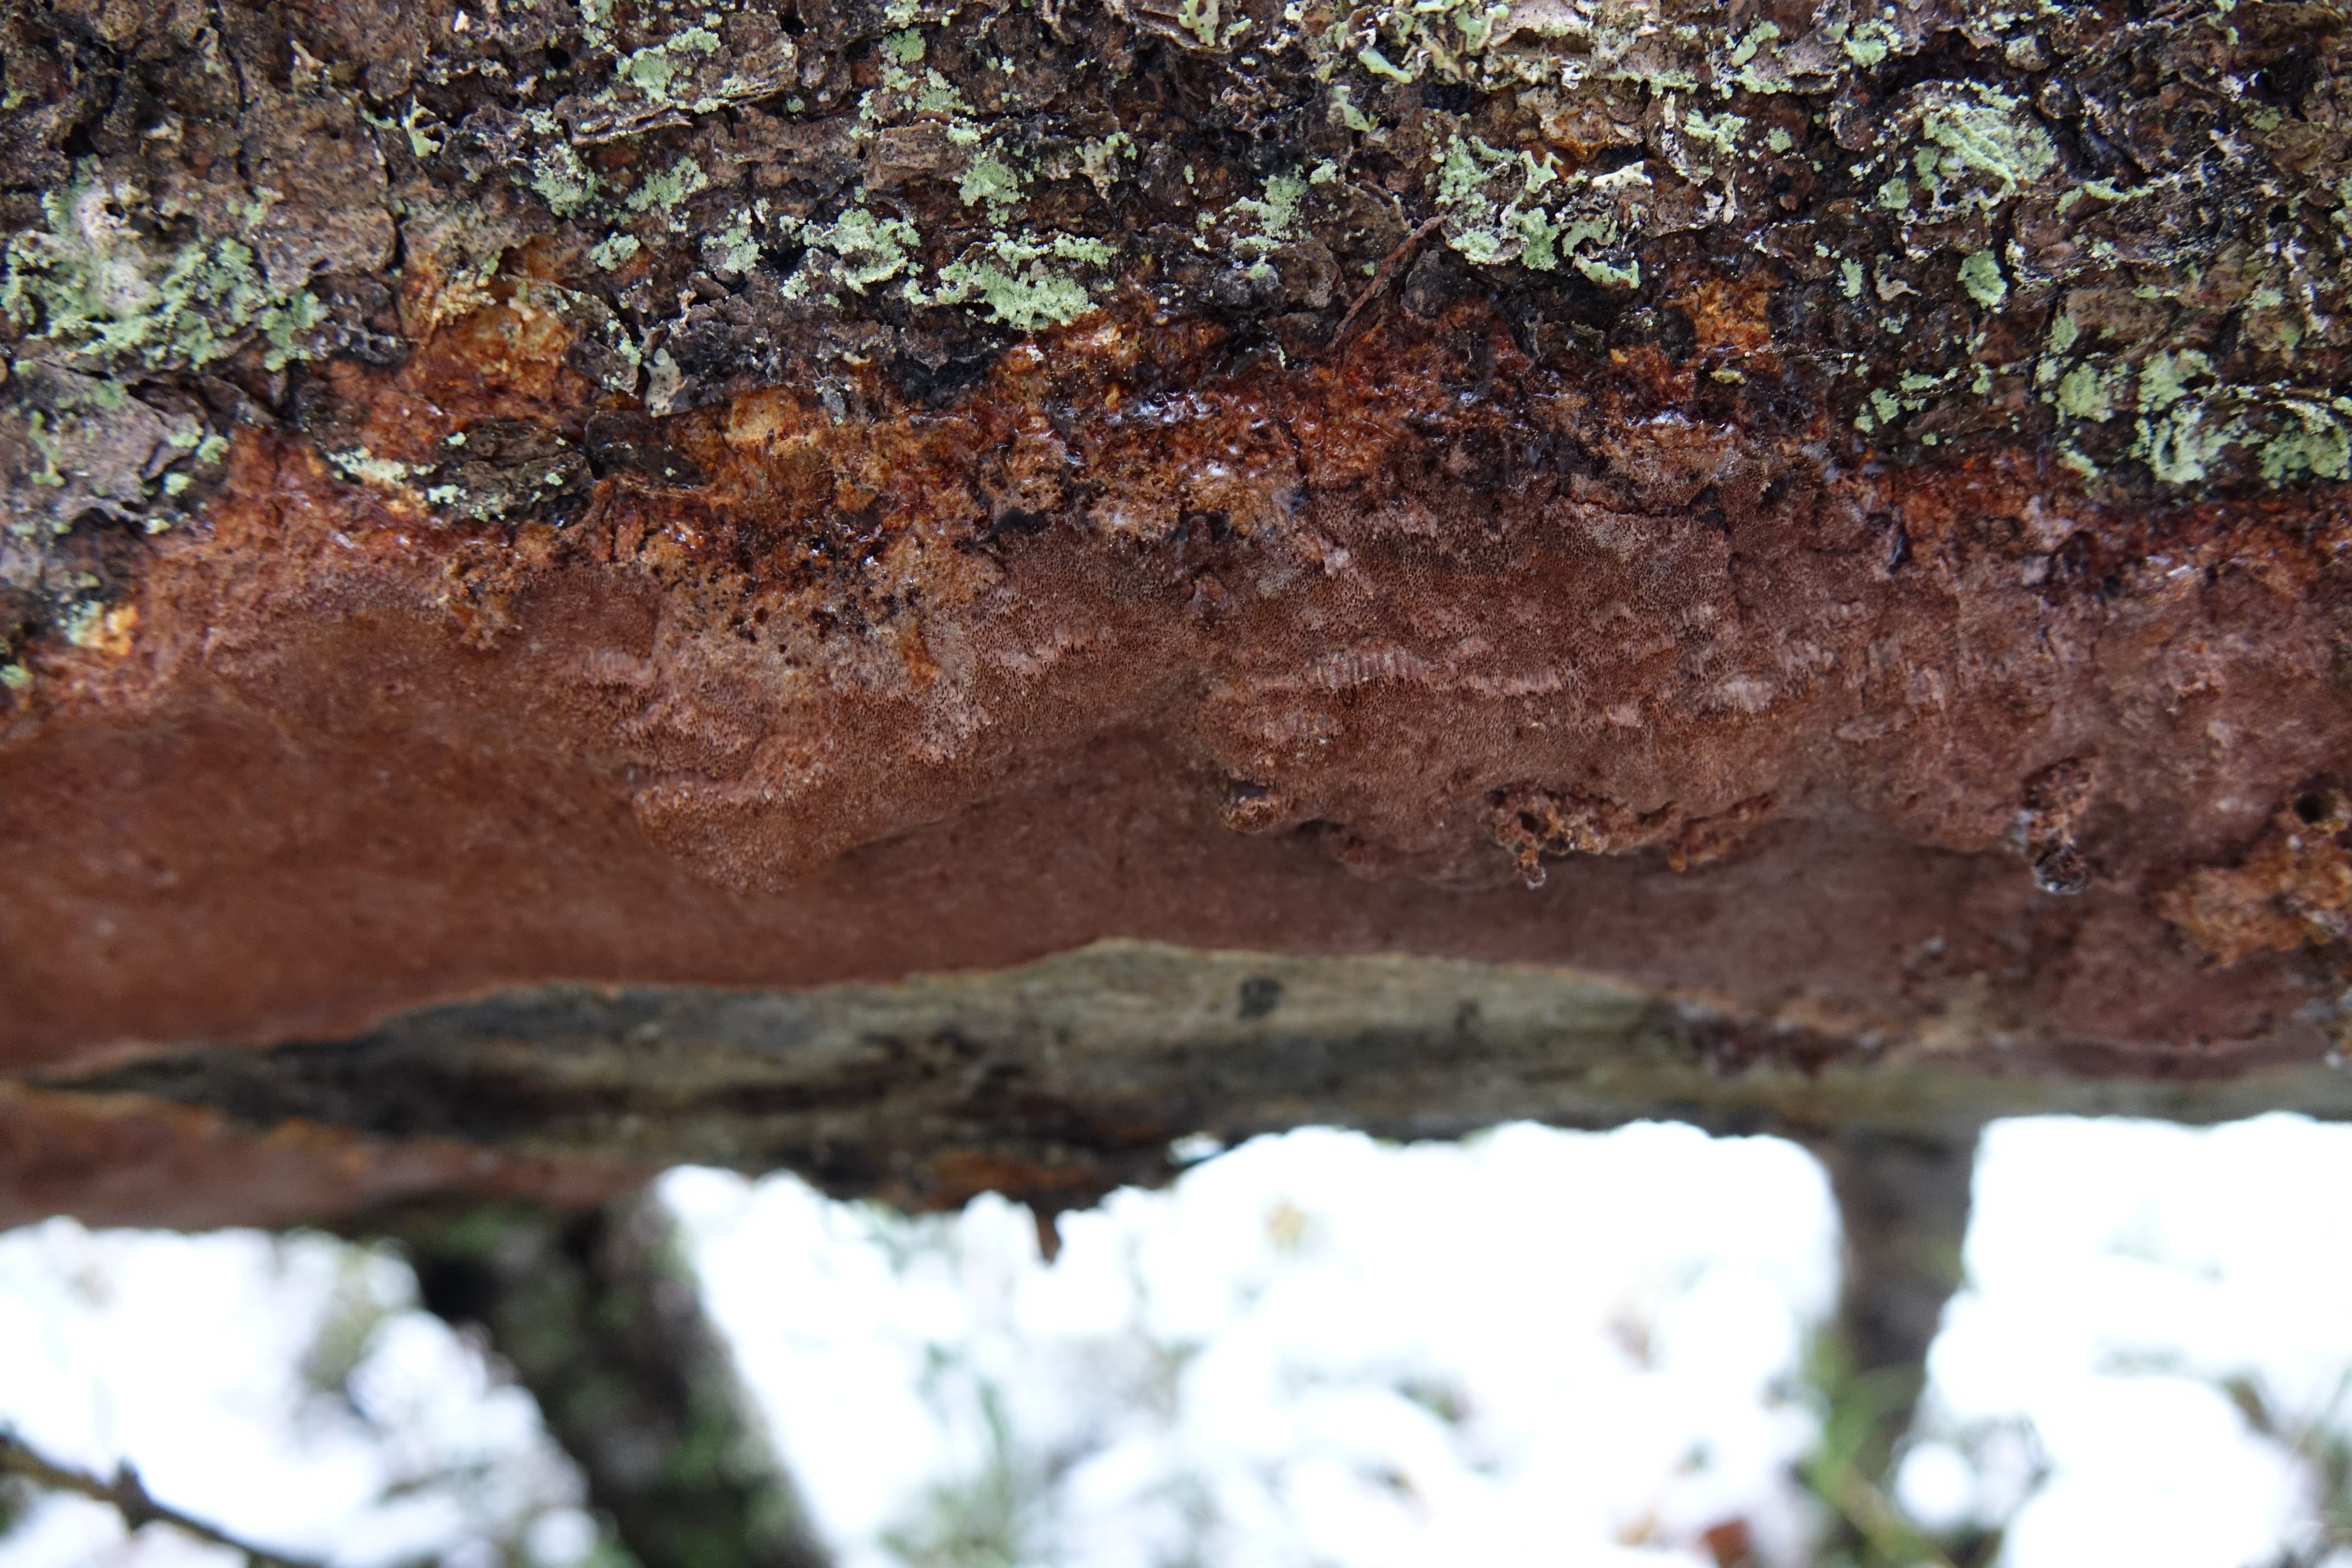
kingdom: Fungi
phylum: Basidiomycota
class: Agaricomycetes
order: Hymenochaetales
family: Hymenochaetaceae
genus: Phellinidium
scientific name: Phellinidium ferrugineofuscum
